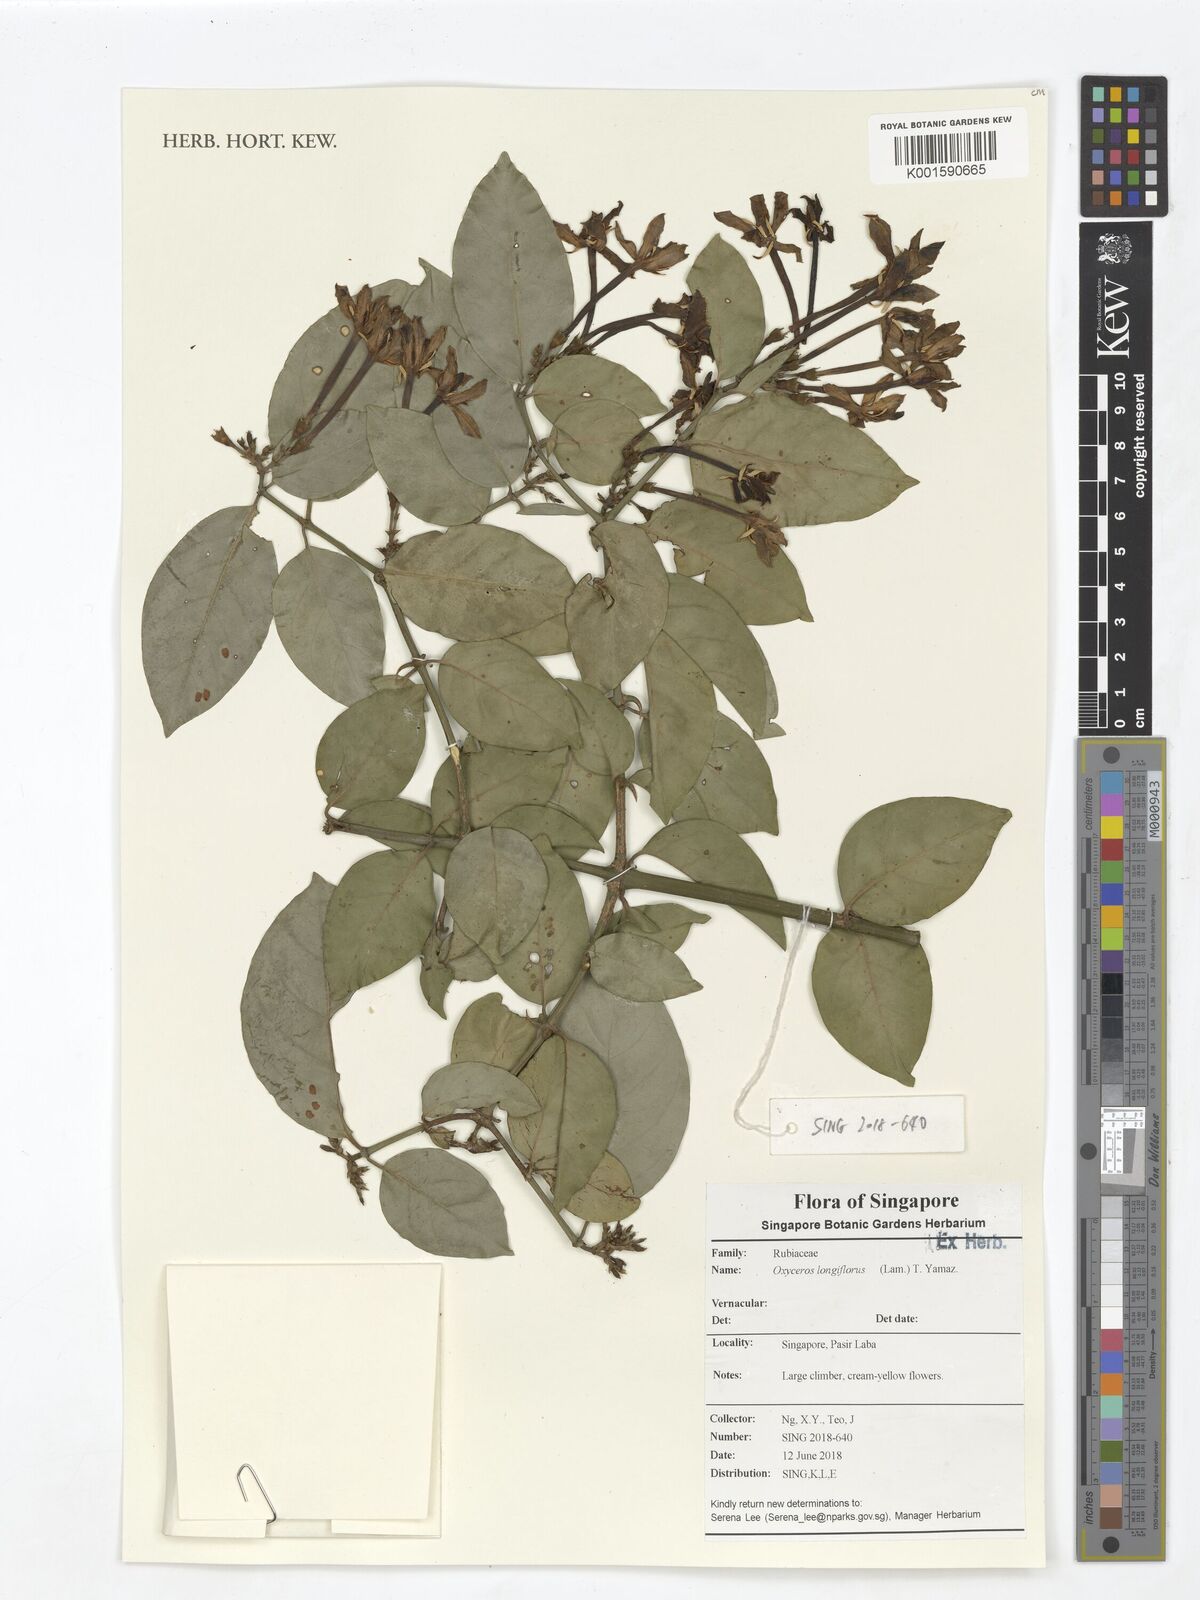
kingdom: Plantae
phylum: Tracheophyta
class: Magnoliopsida
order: Gentianales
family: Rubiaceae
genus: Oxyceros
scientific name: Oxyceros longiflorus
